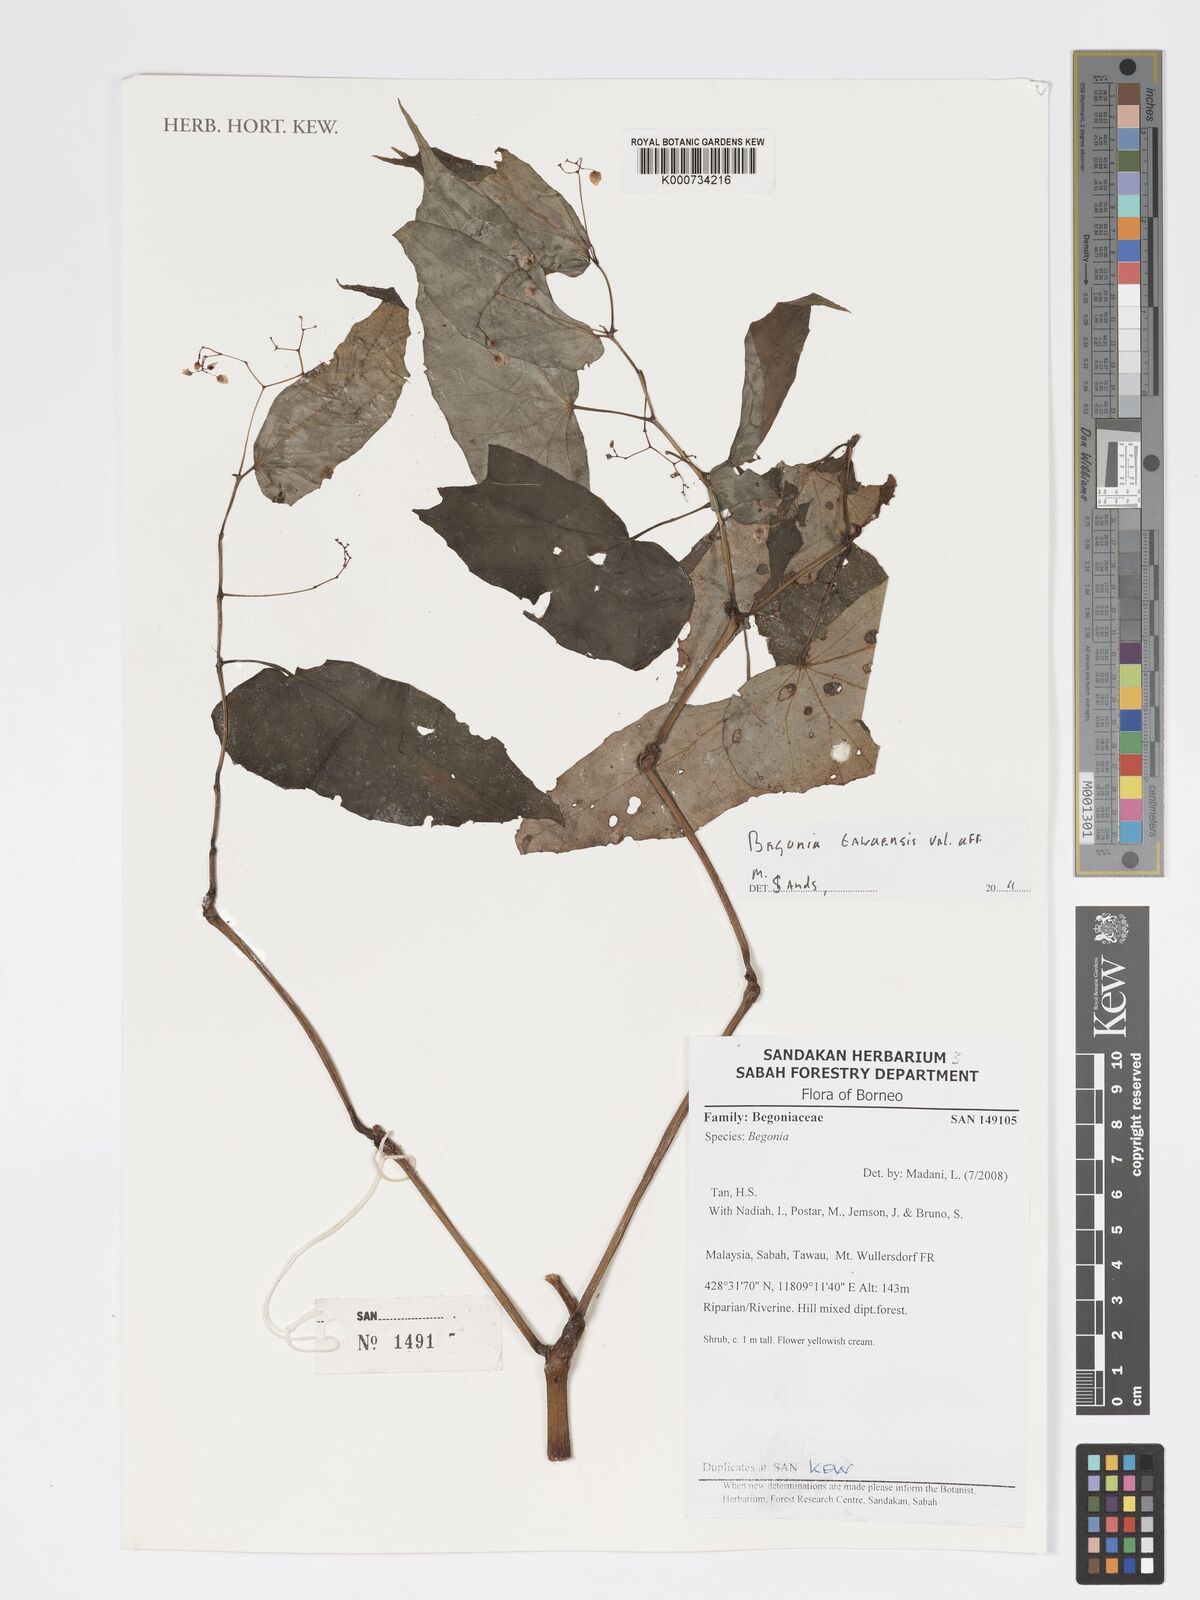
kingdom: Plantae
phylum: Tracheophyta
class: Magnoliopsida
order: Cucurbitales
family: Begoniaceae
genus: Begonia
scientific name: Begonia tawaensis
